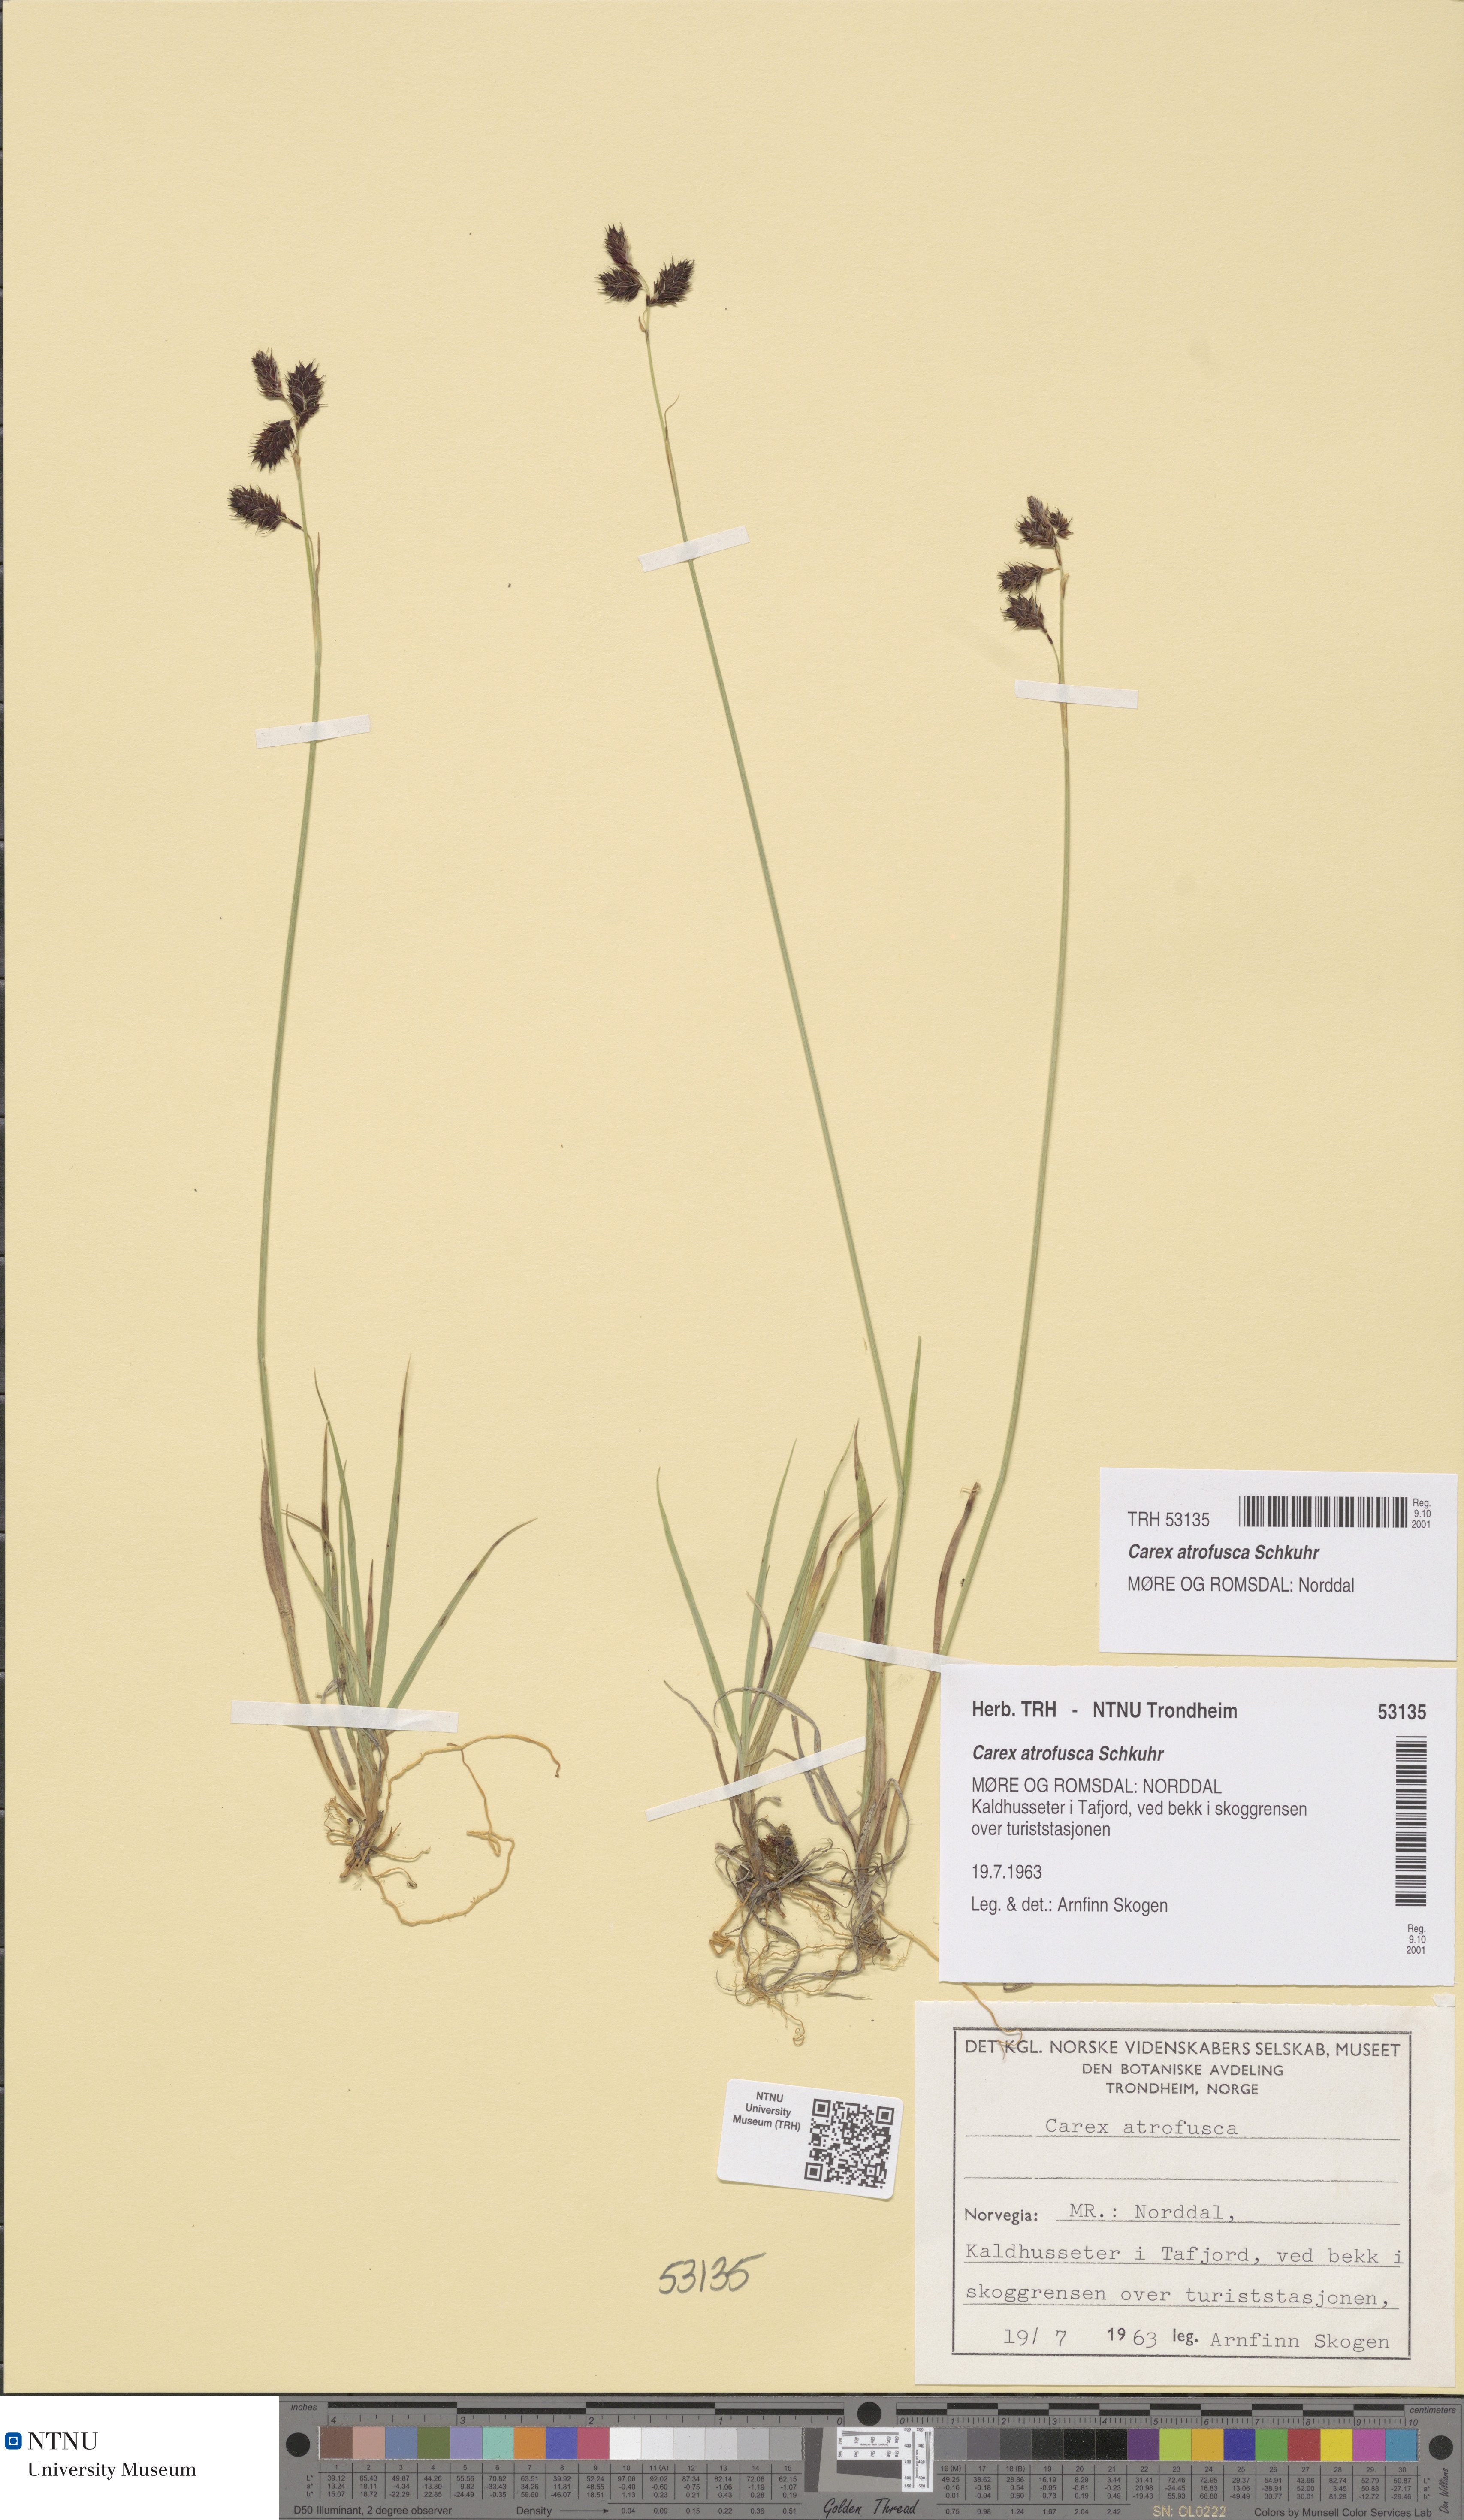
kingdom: Plantae
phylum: Tracheophyta
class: Liliopsida
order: Poales
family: Cyperaceae
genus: Carex
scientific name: Carex atrofusca
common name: Scorched alpine-sedge
